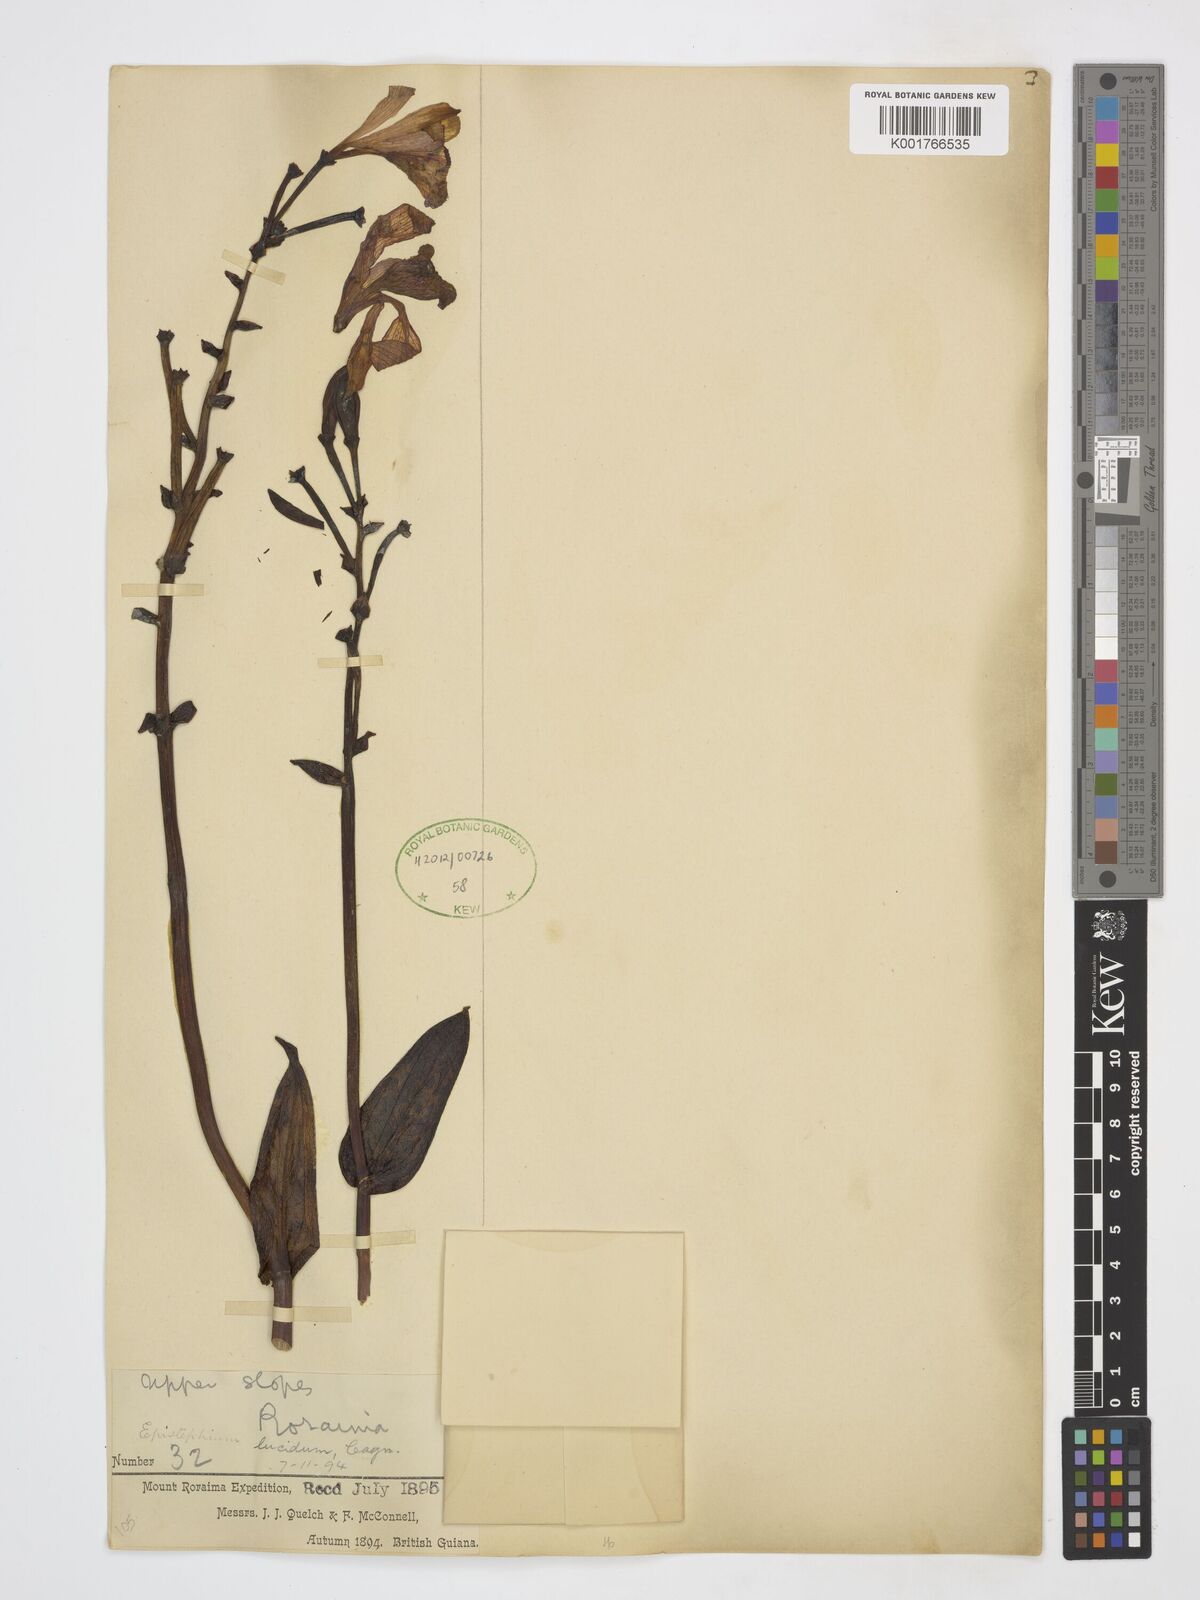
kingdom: Plantae
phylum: Tracheophyta
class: Liliopsida
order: Asparagales
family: Orchidaceae
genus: Epistephium
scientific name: Epistephium williamsii
